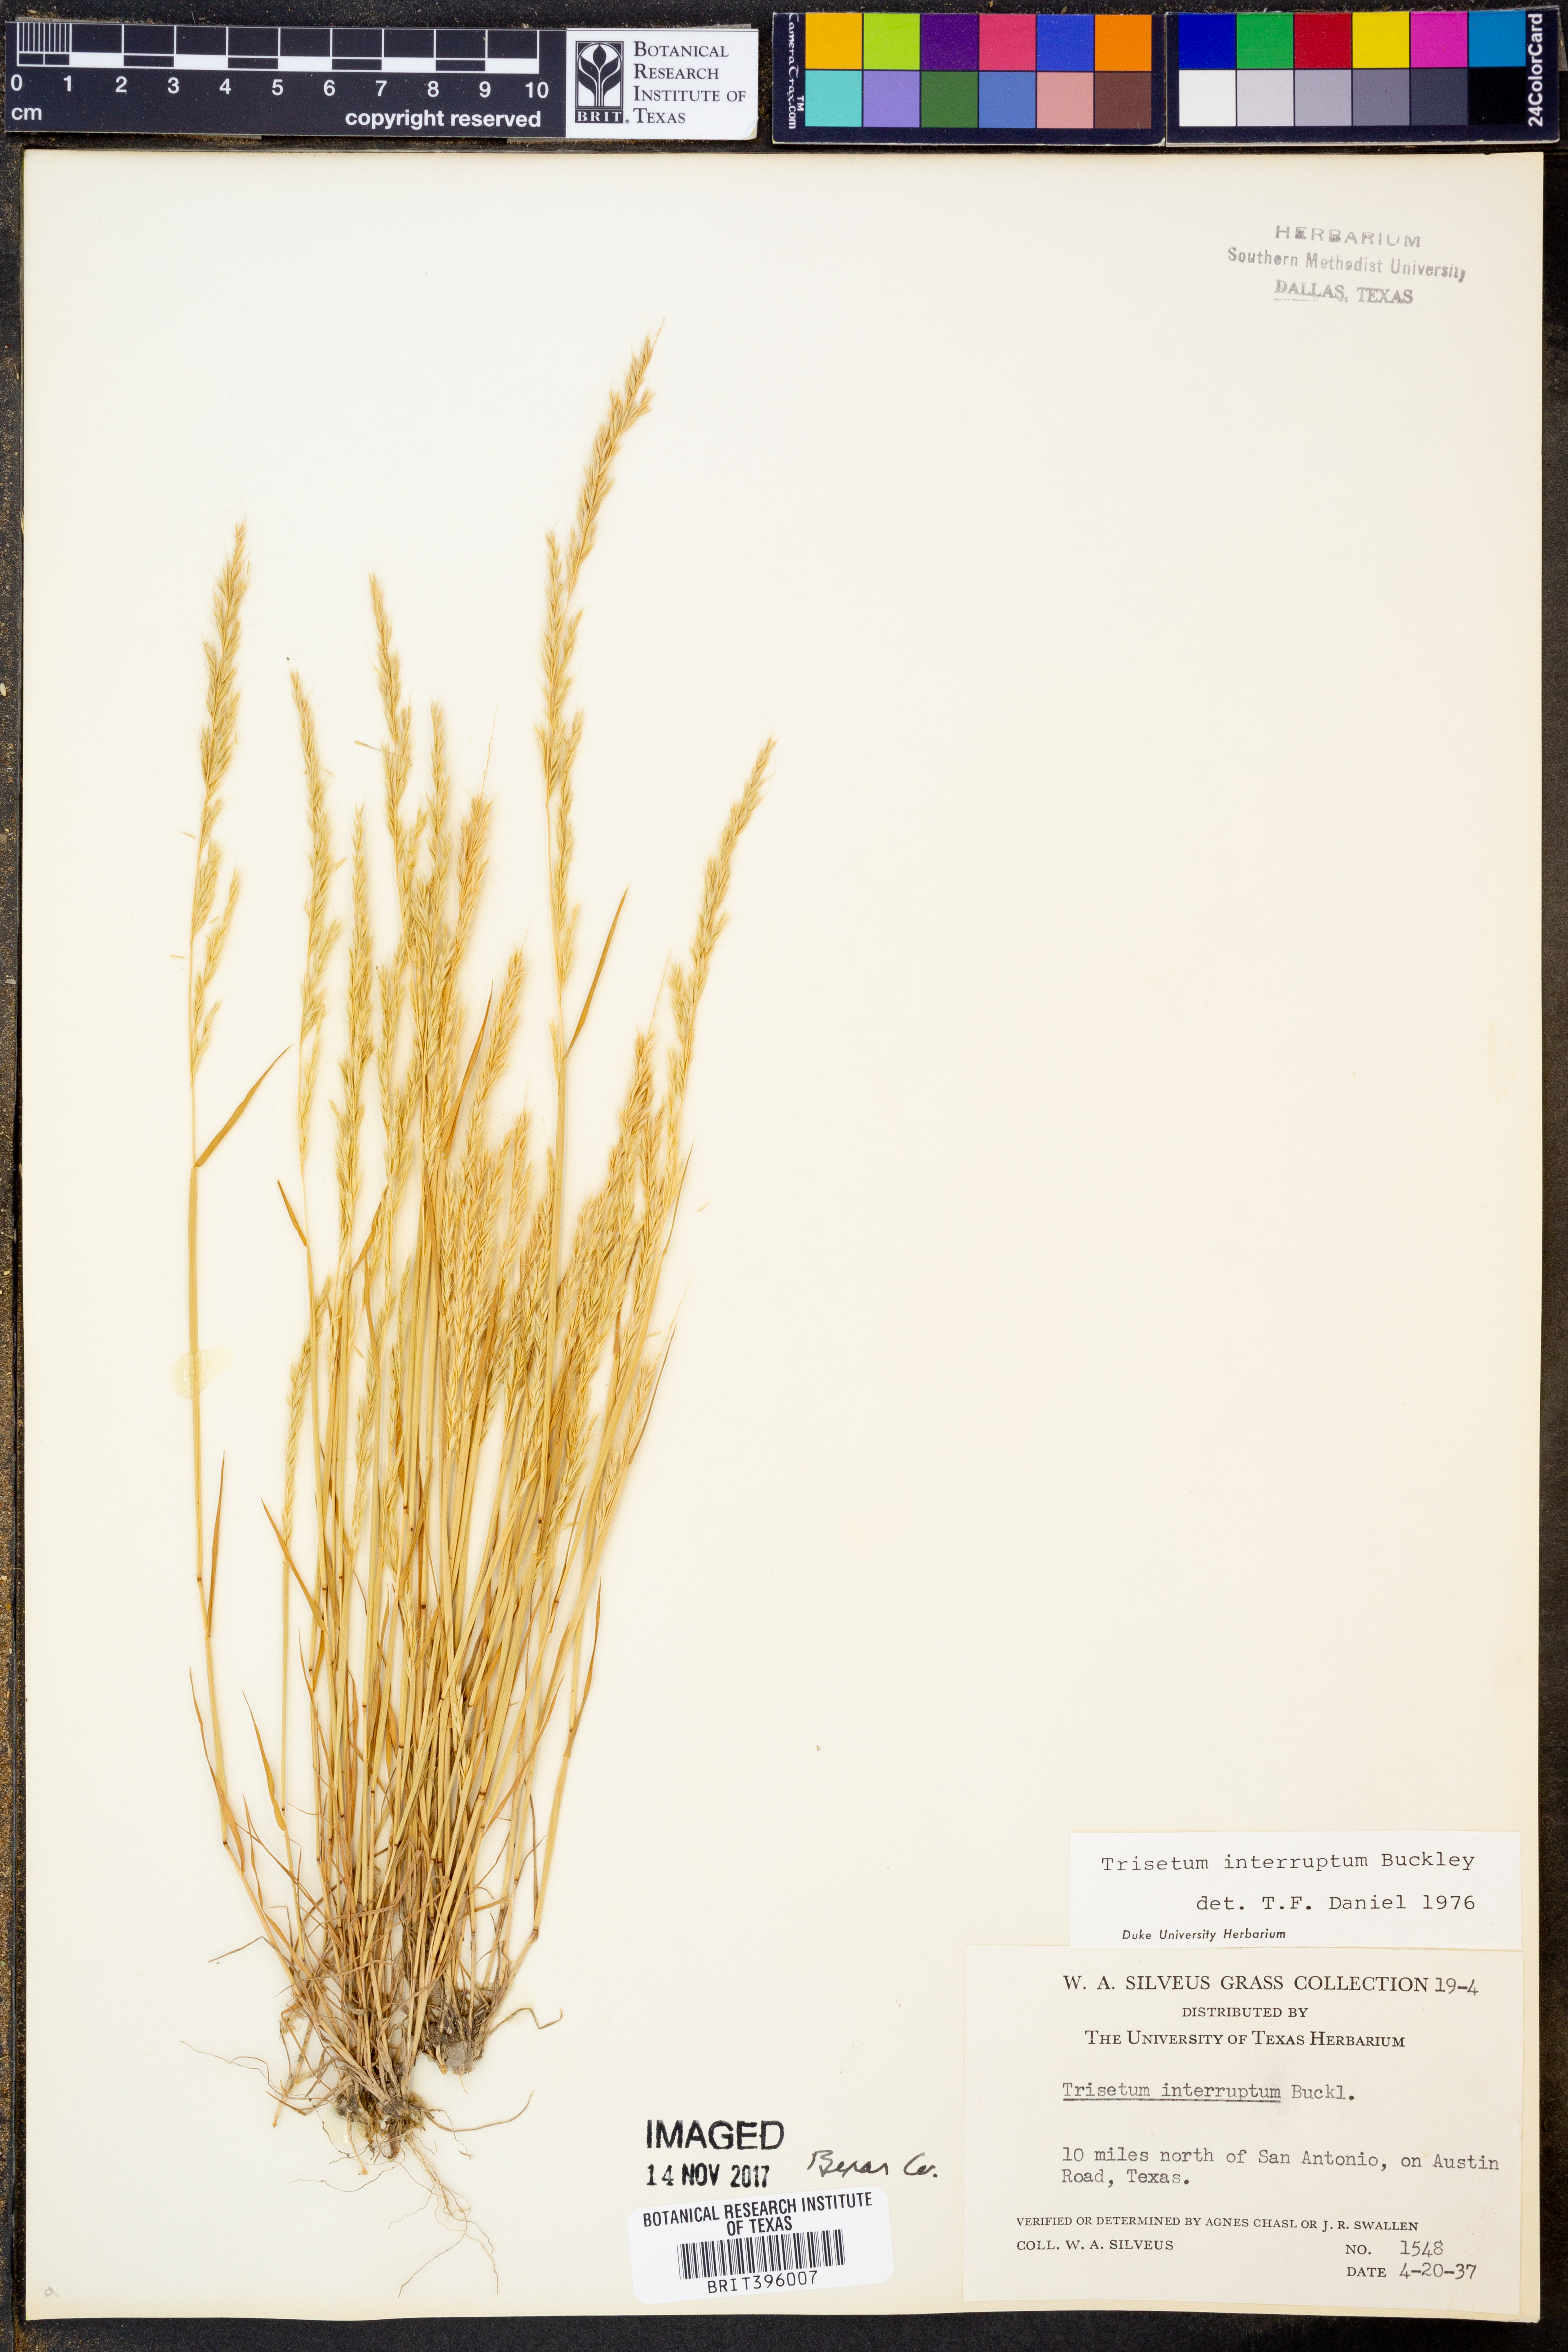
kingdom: Plantae
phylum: Tracheophyta
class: Liliopsida
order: Poales
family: Poaceae
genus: Sphenopholis
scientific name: Sphenopholis interrupta
